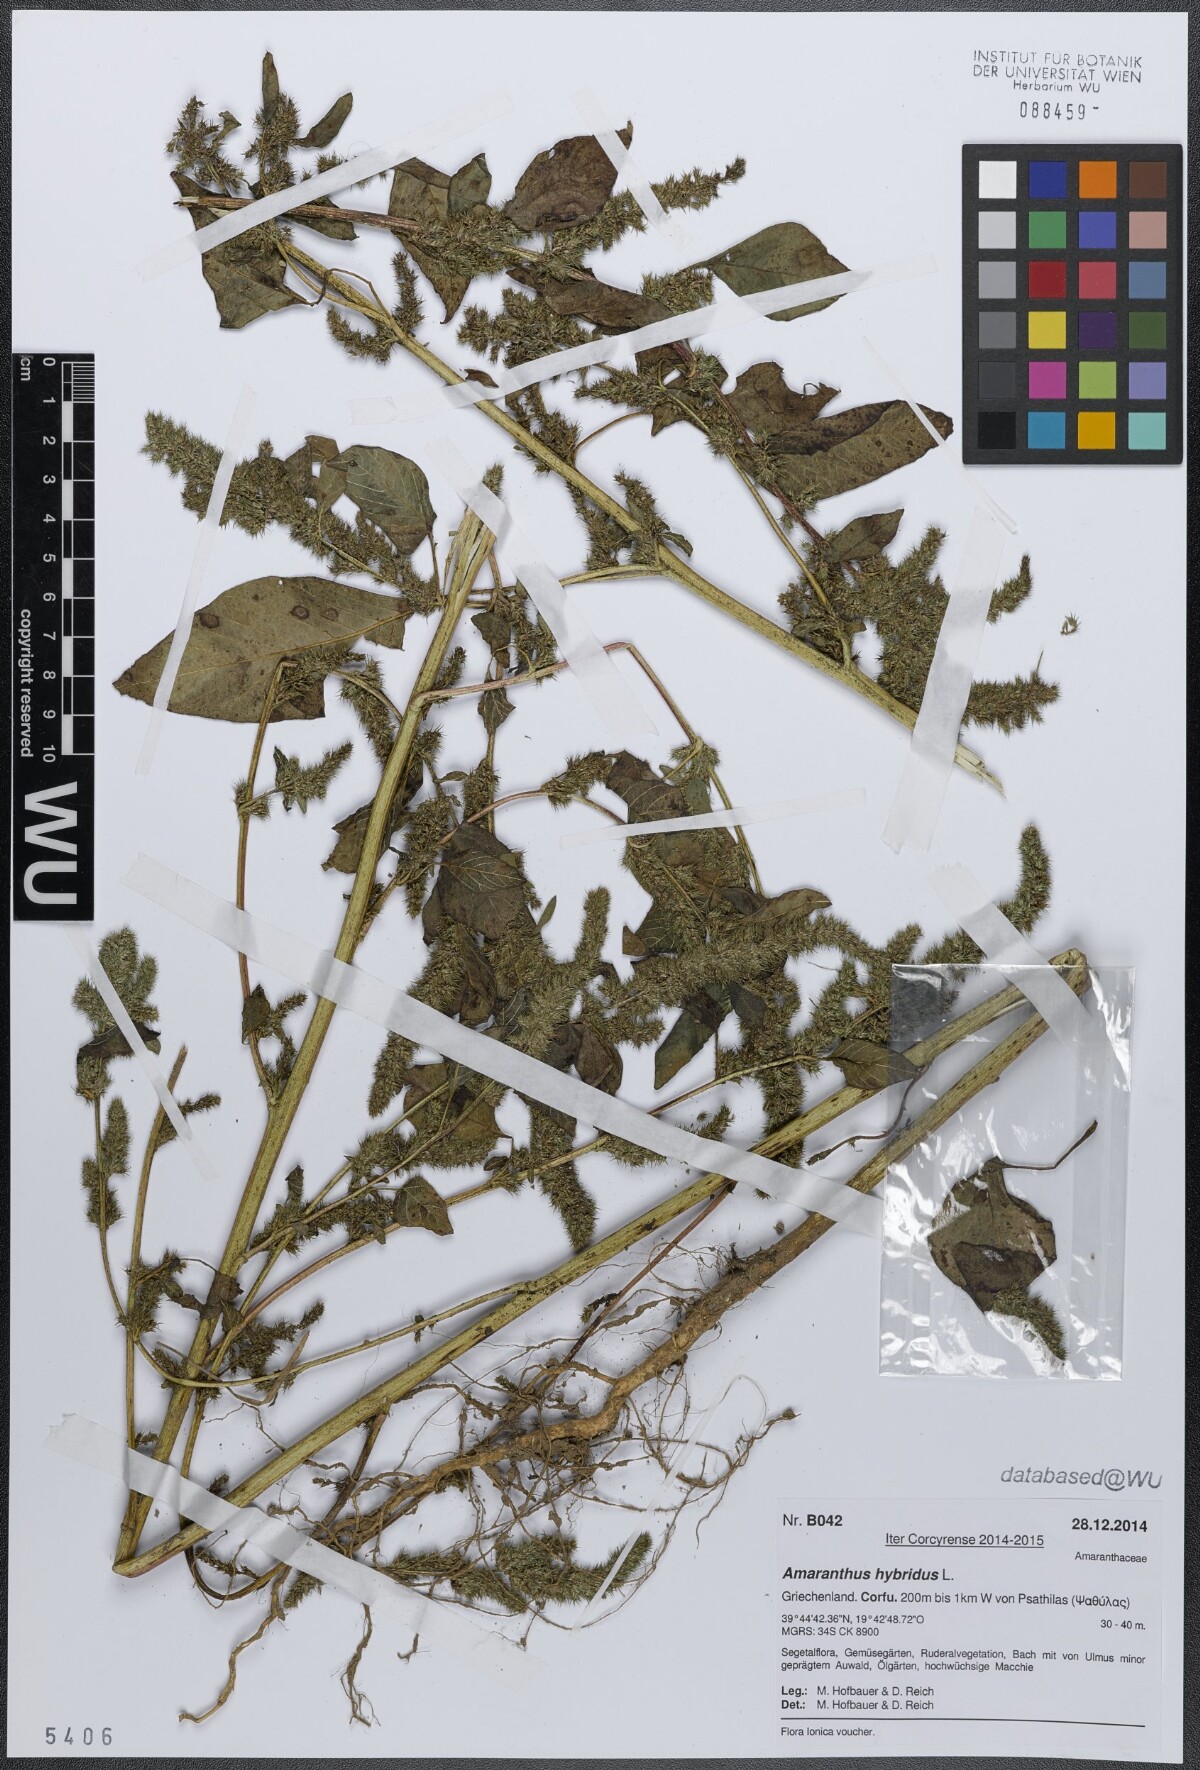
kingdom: Plantae
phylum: Tracheophyta
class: Magnoliopsida
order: Caryophyllales
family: Amaranthaceae
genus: Amaranthus
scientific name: Amaranthus hybridus
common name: Green amaranth
